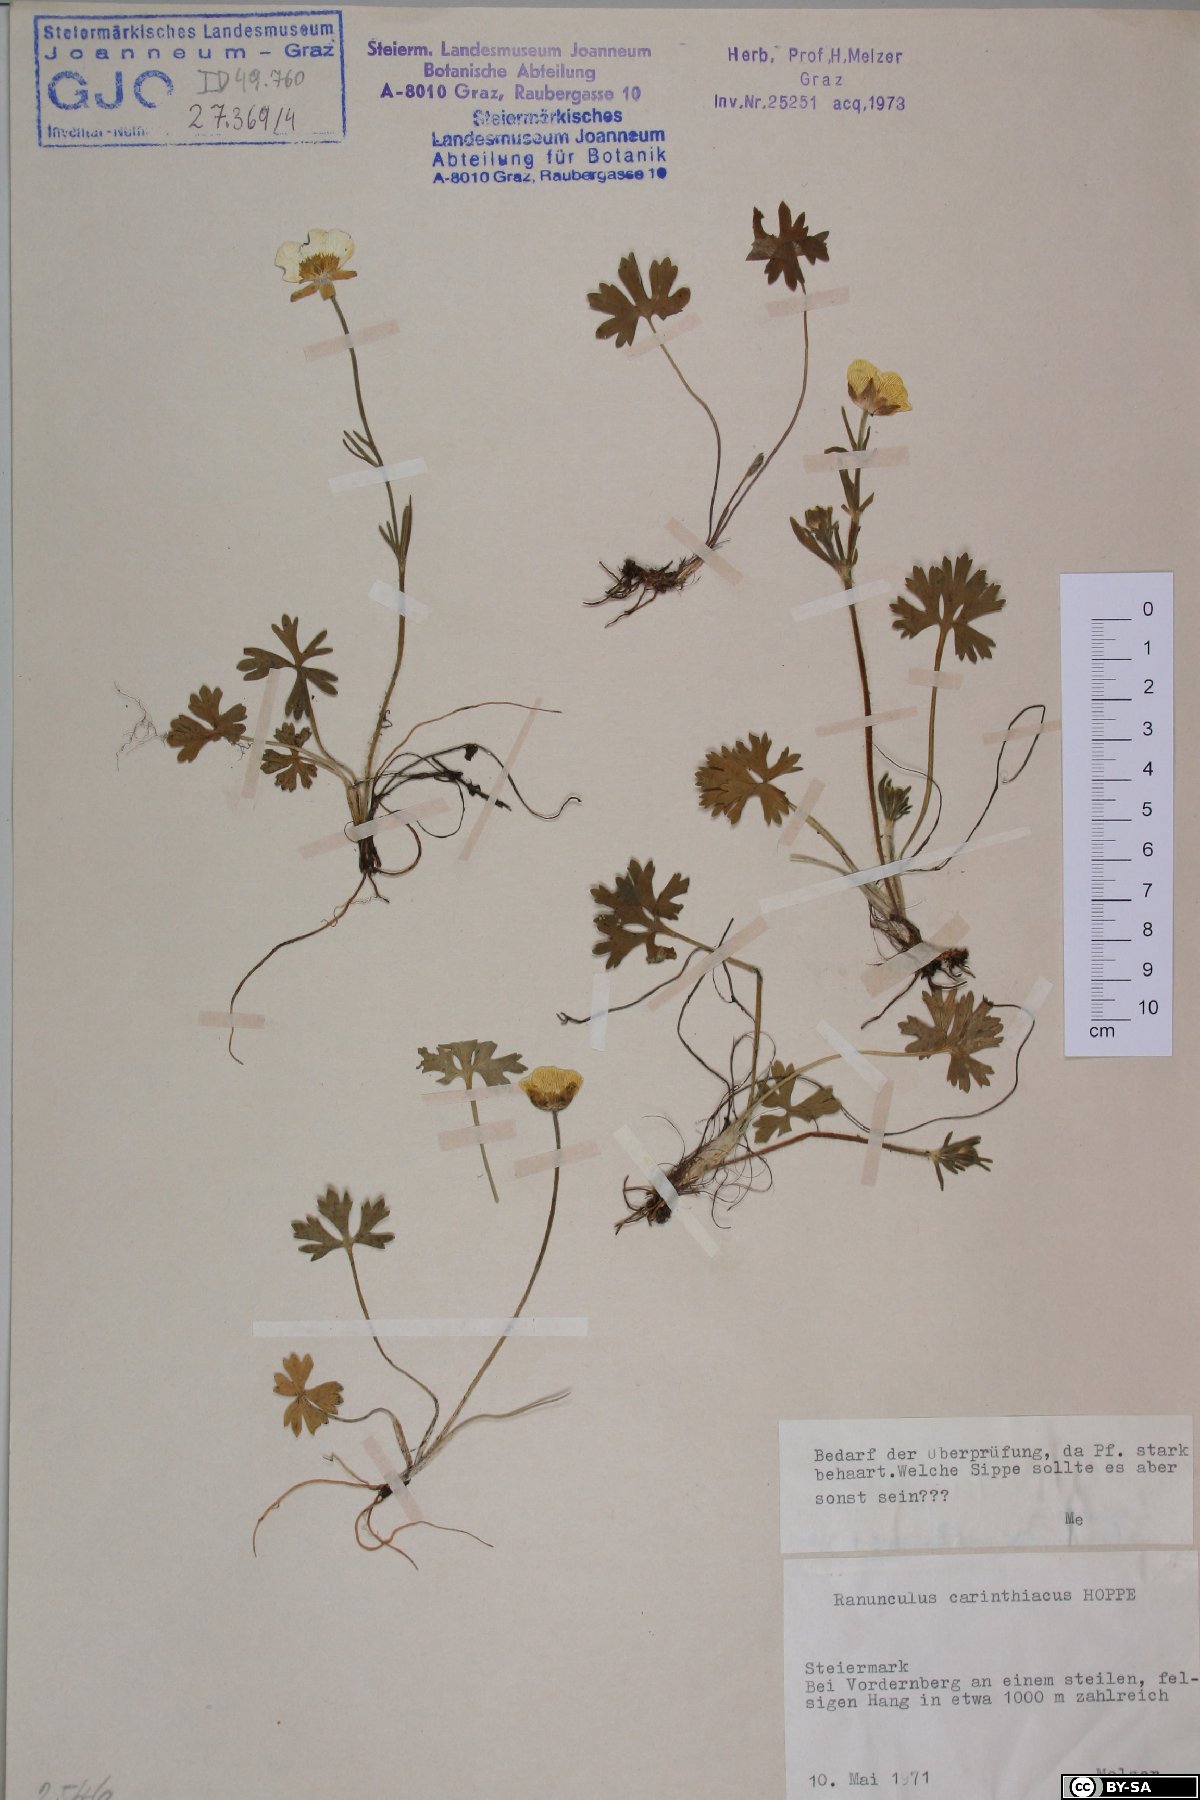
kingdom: Plantae
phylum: Tracheophyta
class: Magnoliopsida
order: Ranunculales
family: Ranunculaceae
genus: Ranunculus
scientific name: Ranunculus carinthiacus
